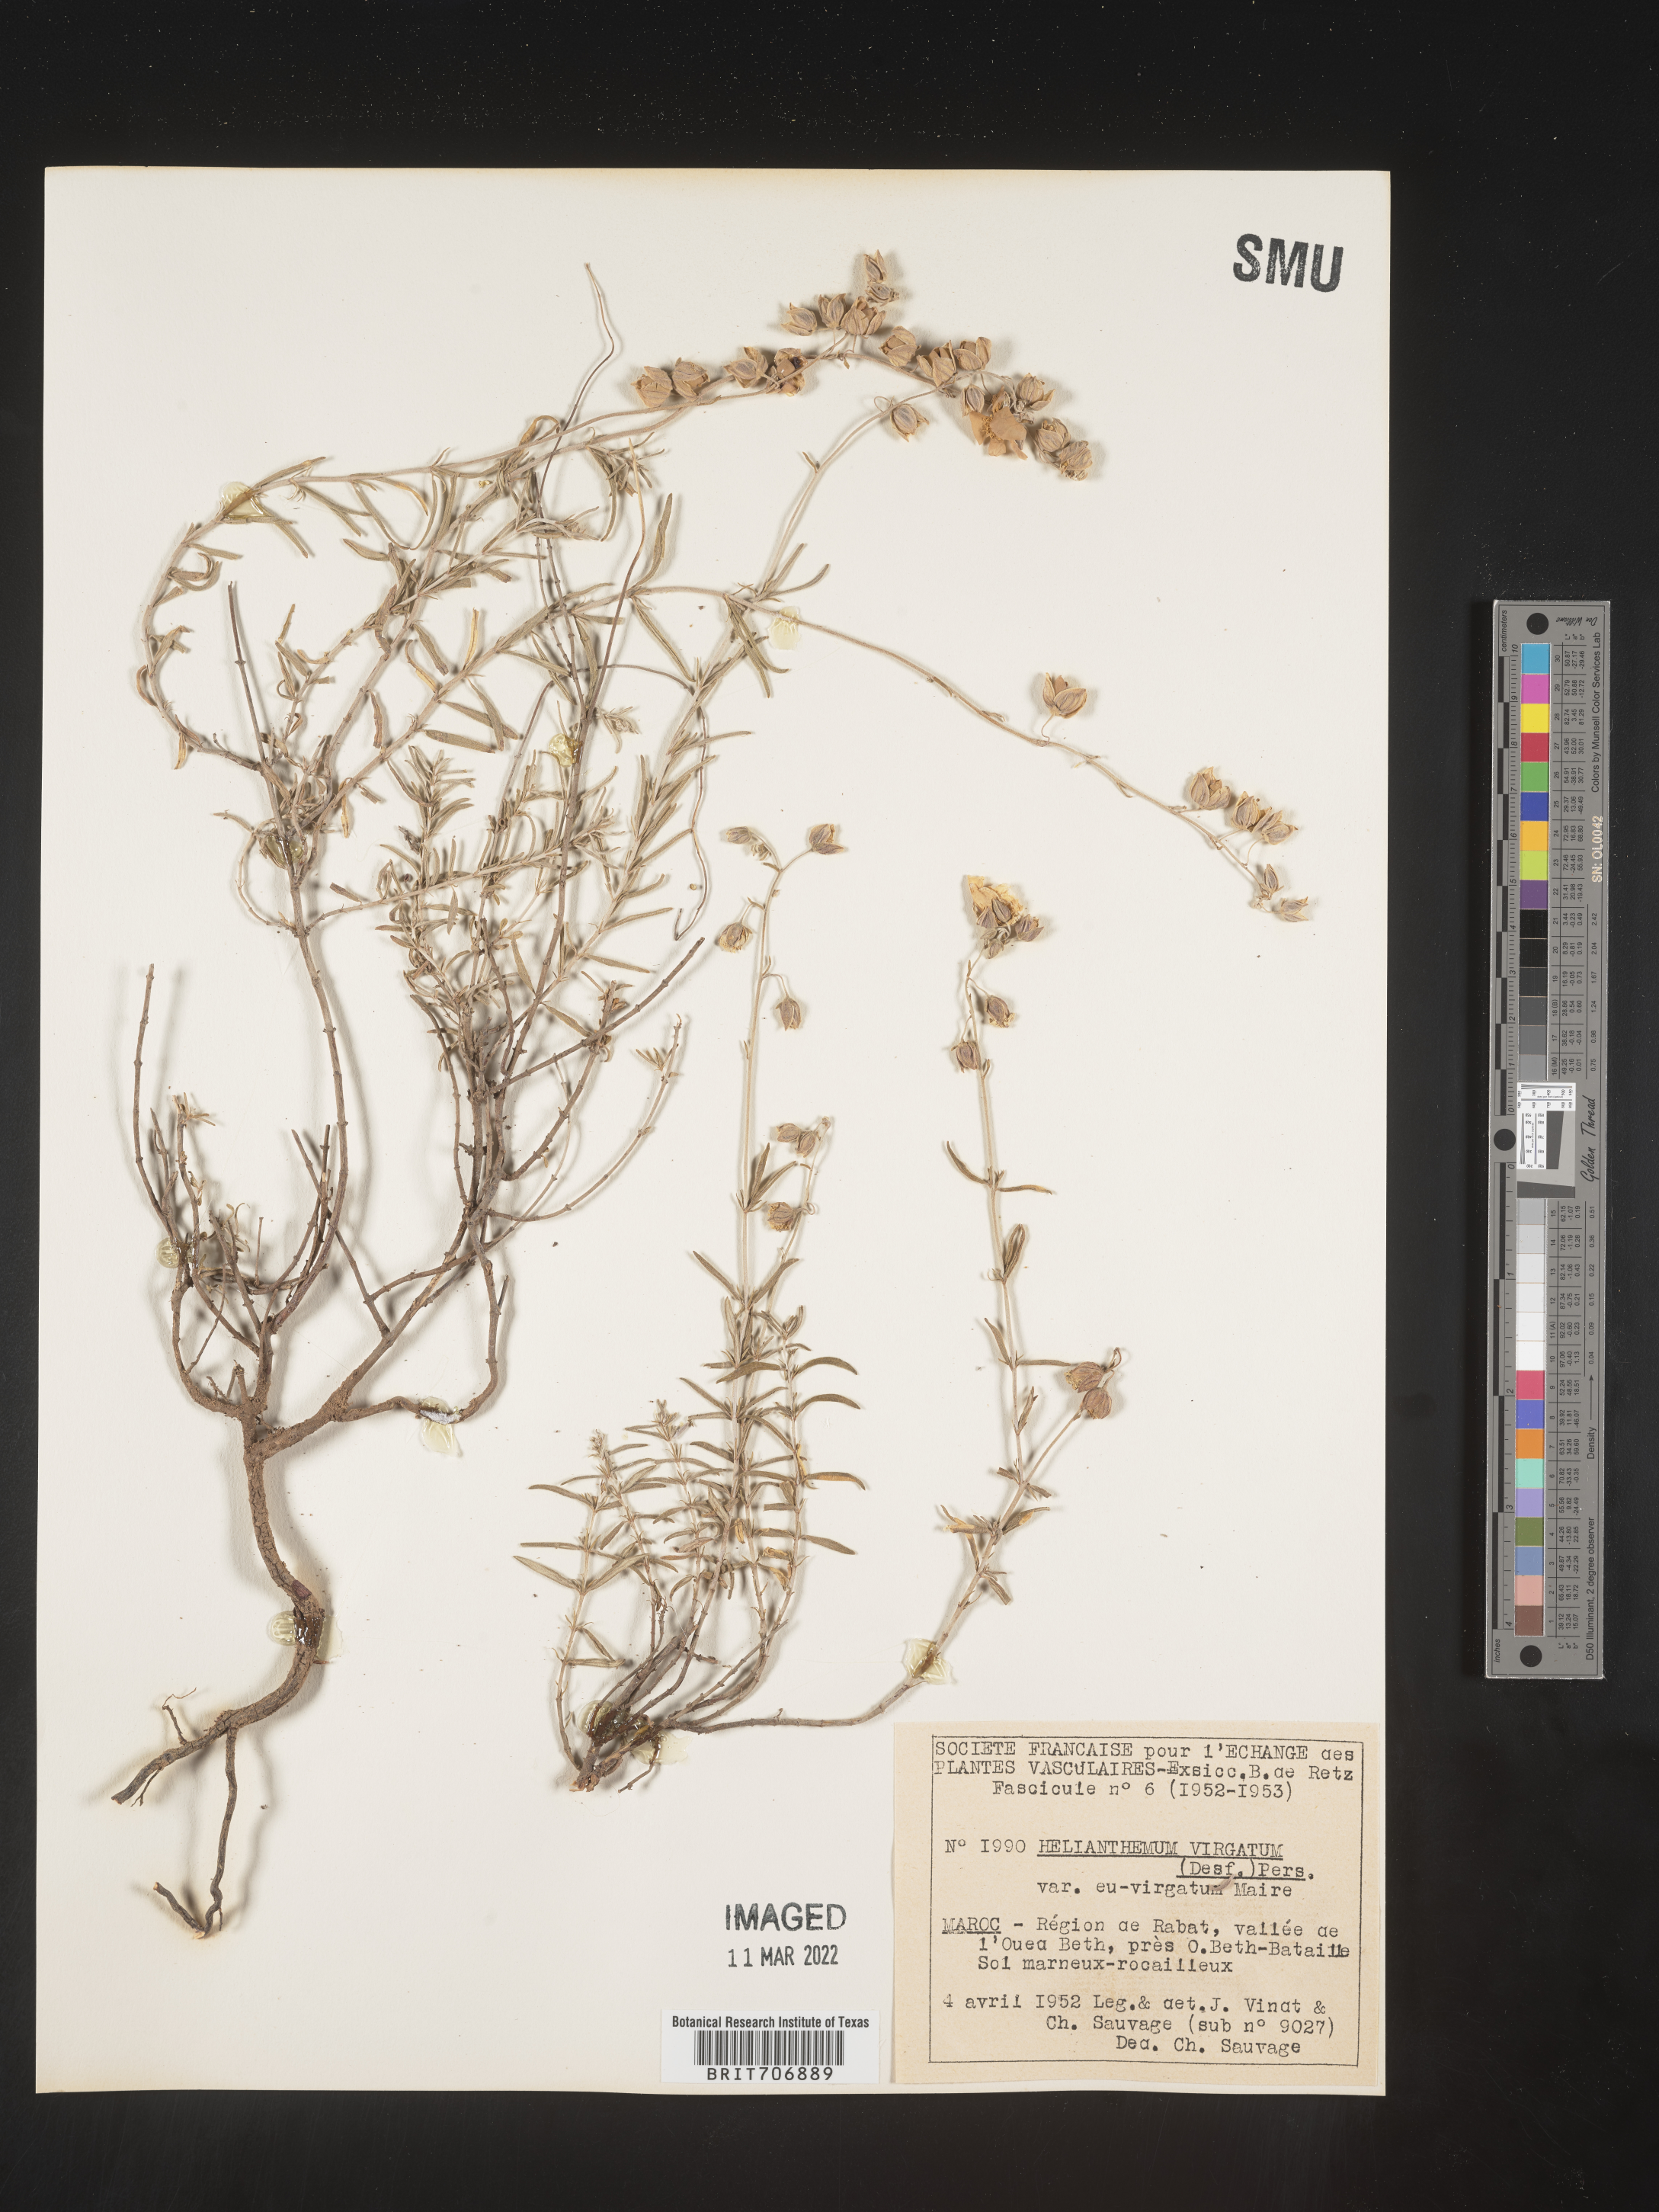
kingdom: Plantae
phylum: Tracheophyta
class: Magnoliopsida
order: Malvales
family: Cistaceae
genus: Helianthemum
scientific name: Helianthemum
